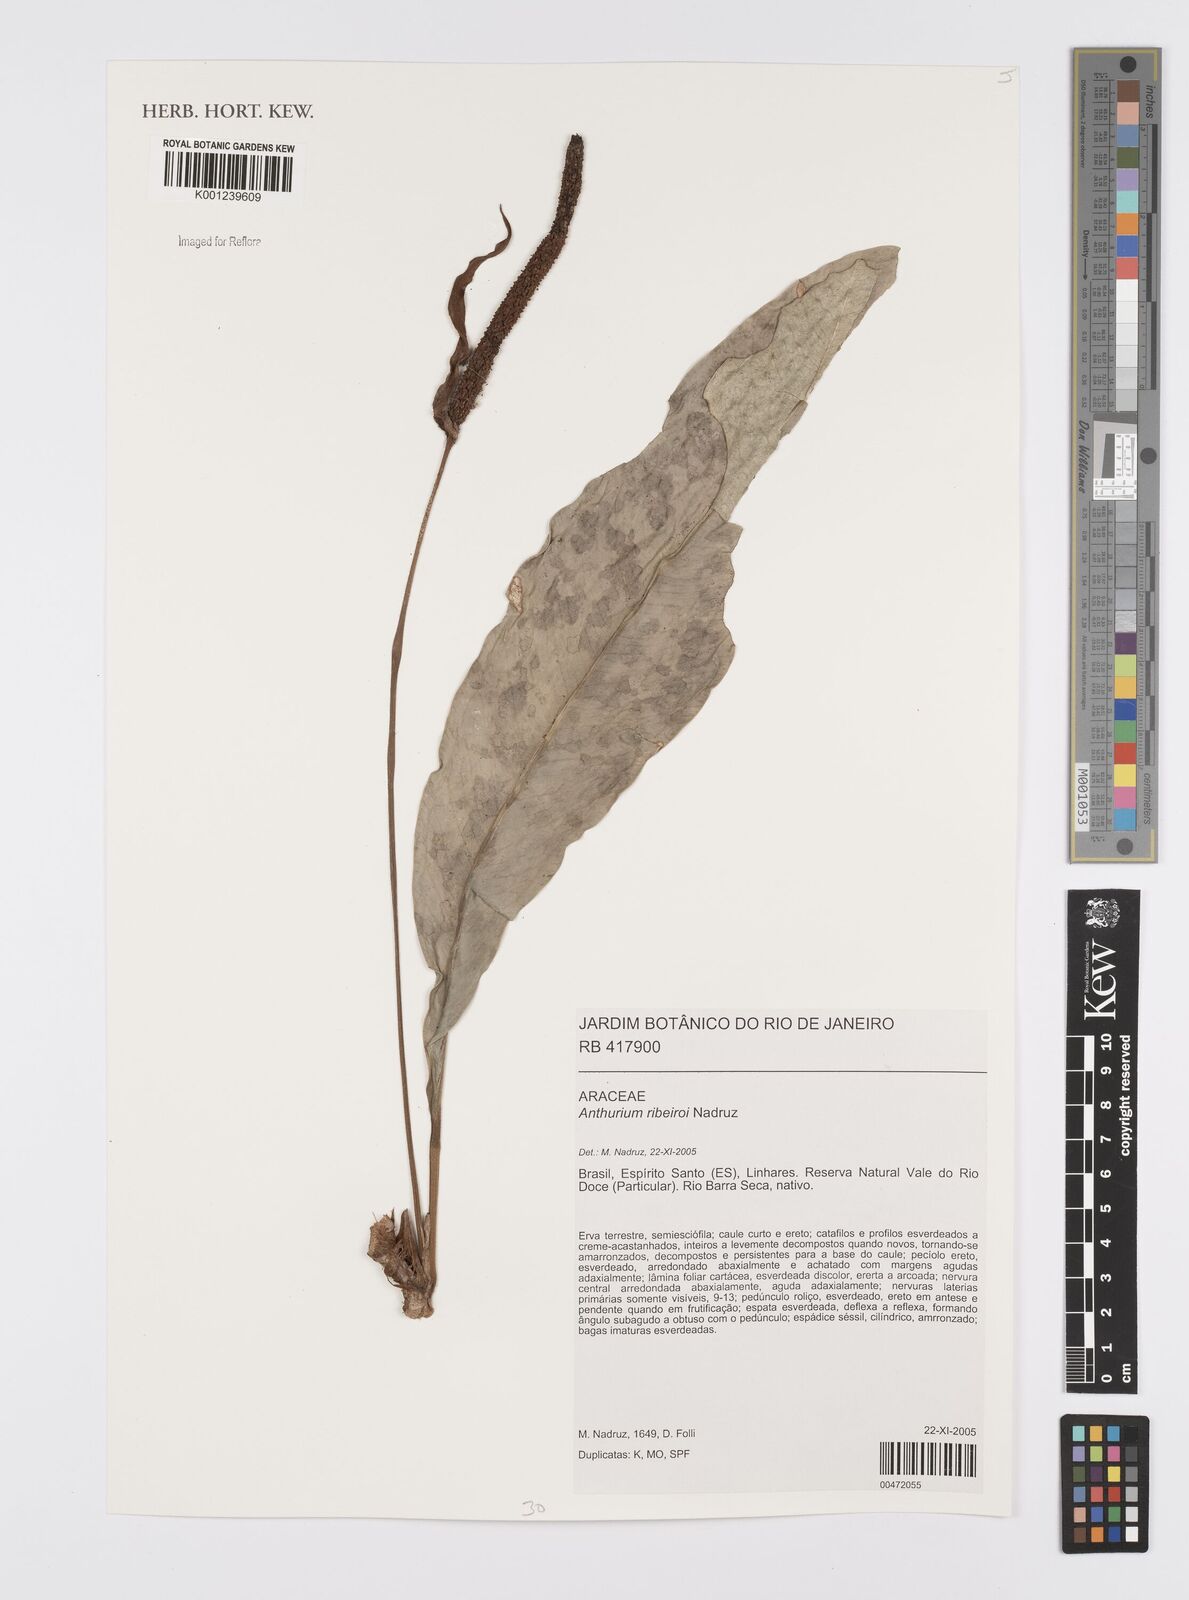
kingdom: Plantae
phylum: Tracheophyta
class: Liliopsida
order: Alismatales
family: Araceae
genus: Anthurium
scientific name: Anthurium ribeiroi
